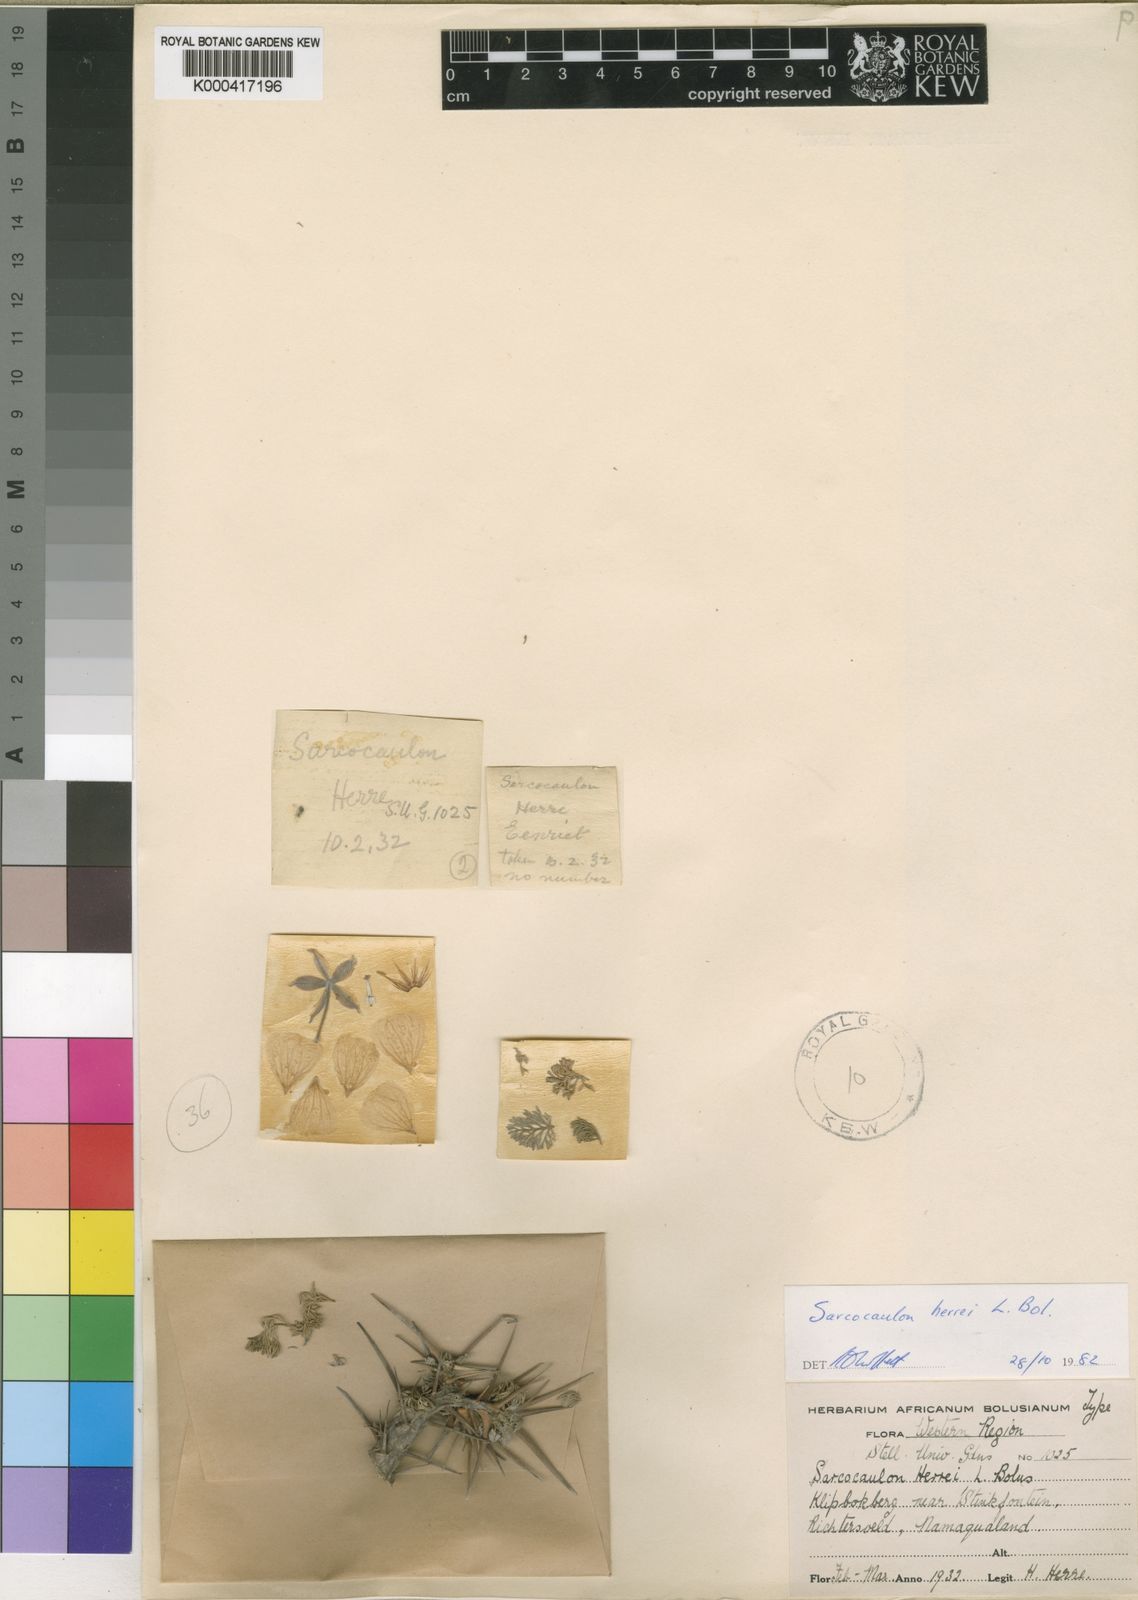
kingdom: Plantae
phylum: Tracheophyta
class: Magnoliopsida
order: Geraniales
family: Geraniaceae
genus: Monsonia
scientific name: Monsonia herrei
